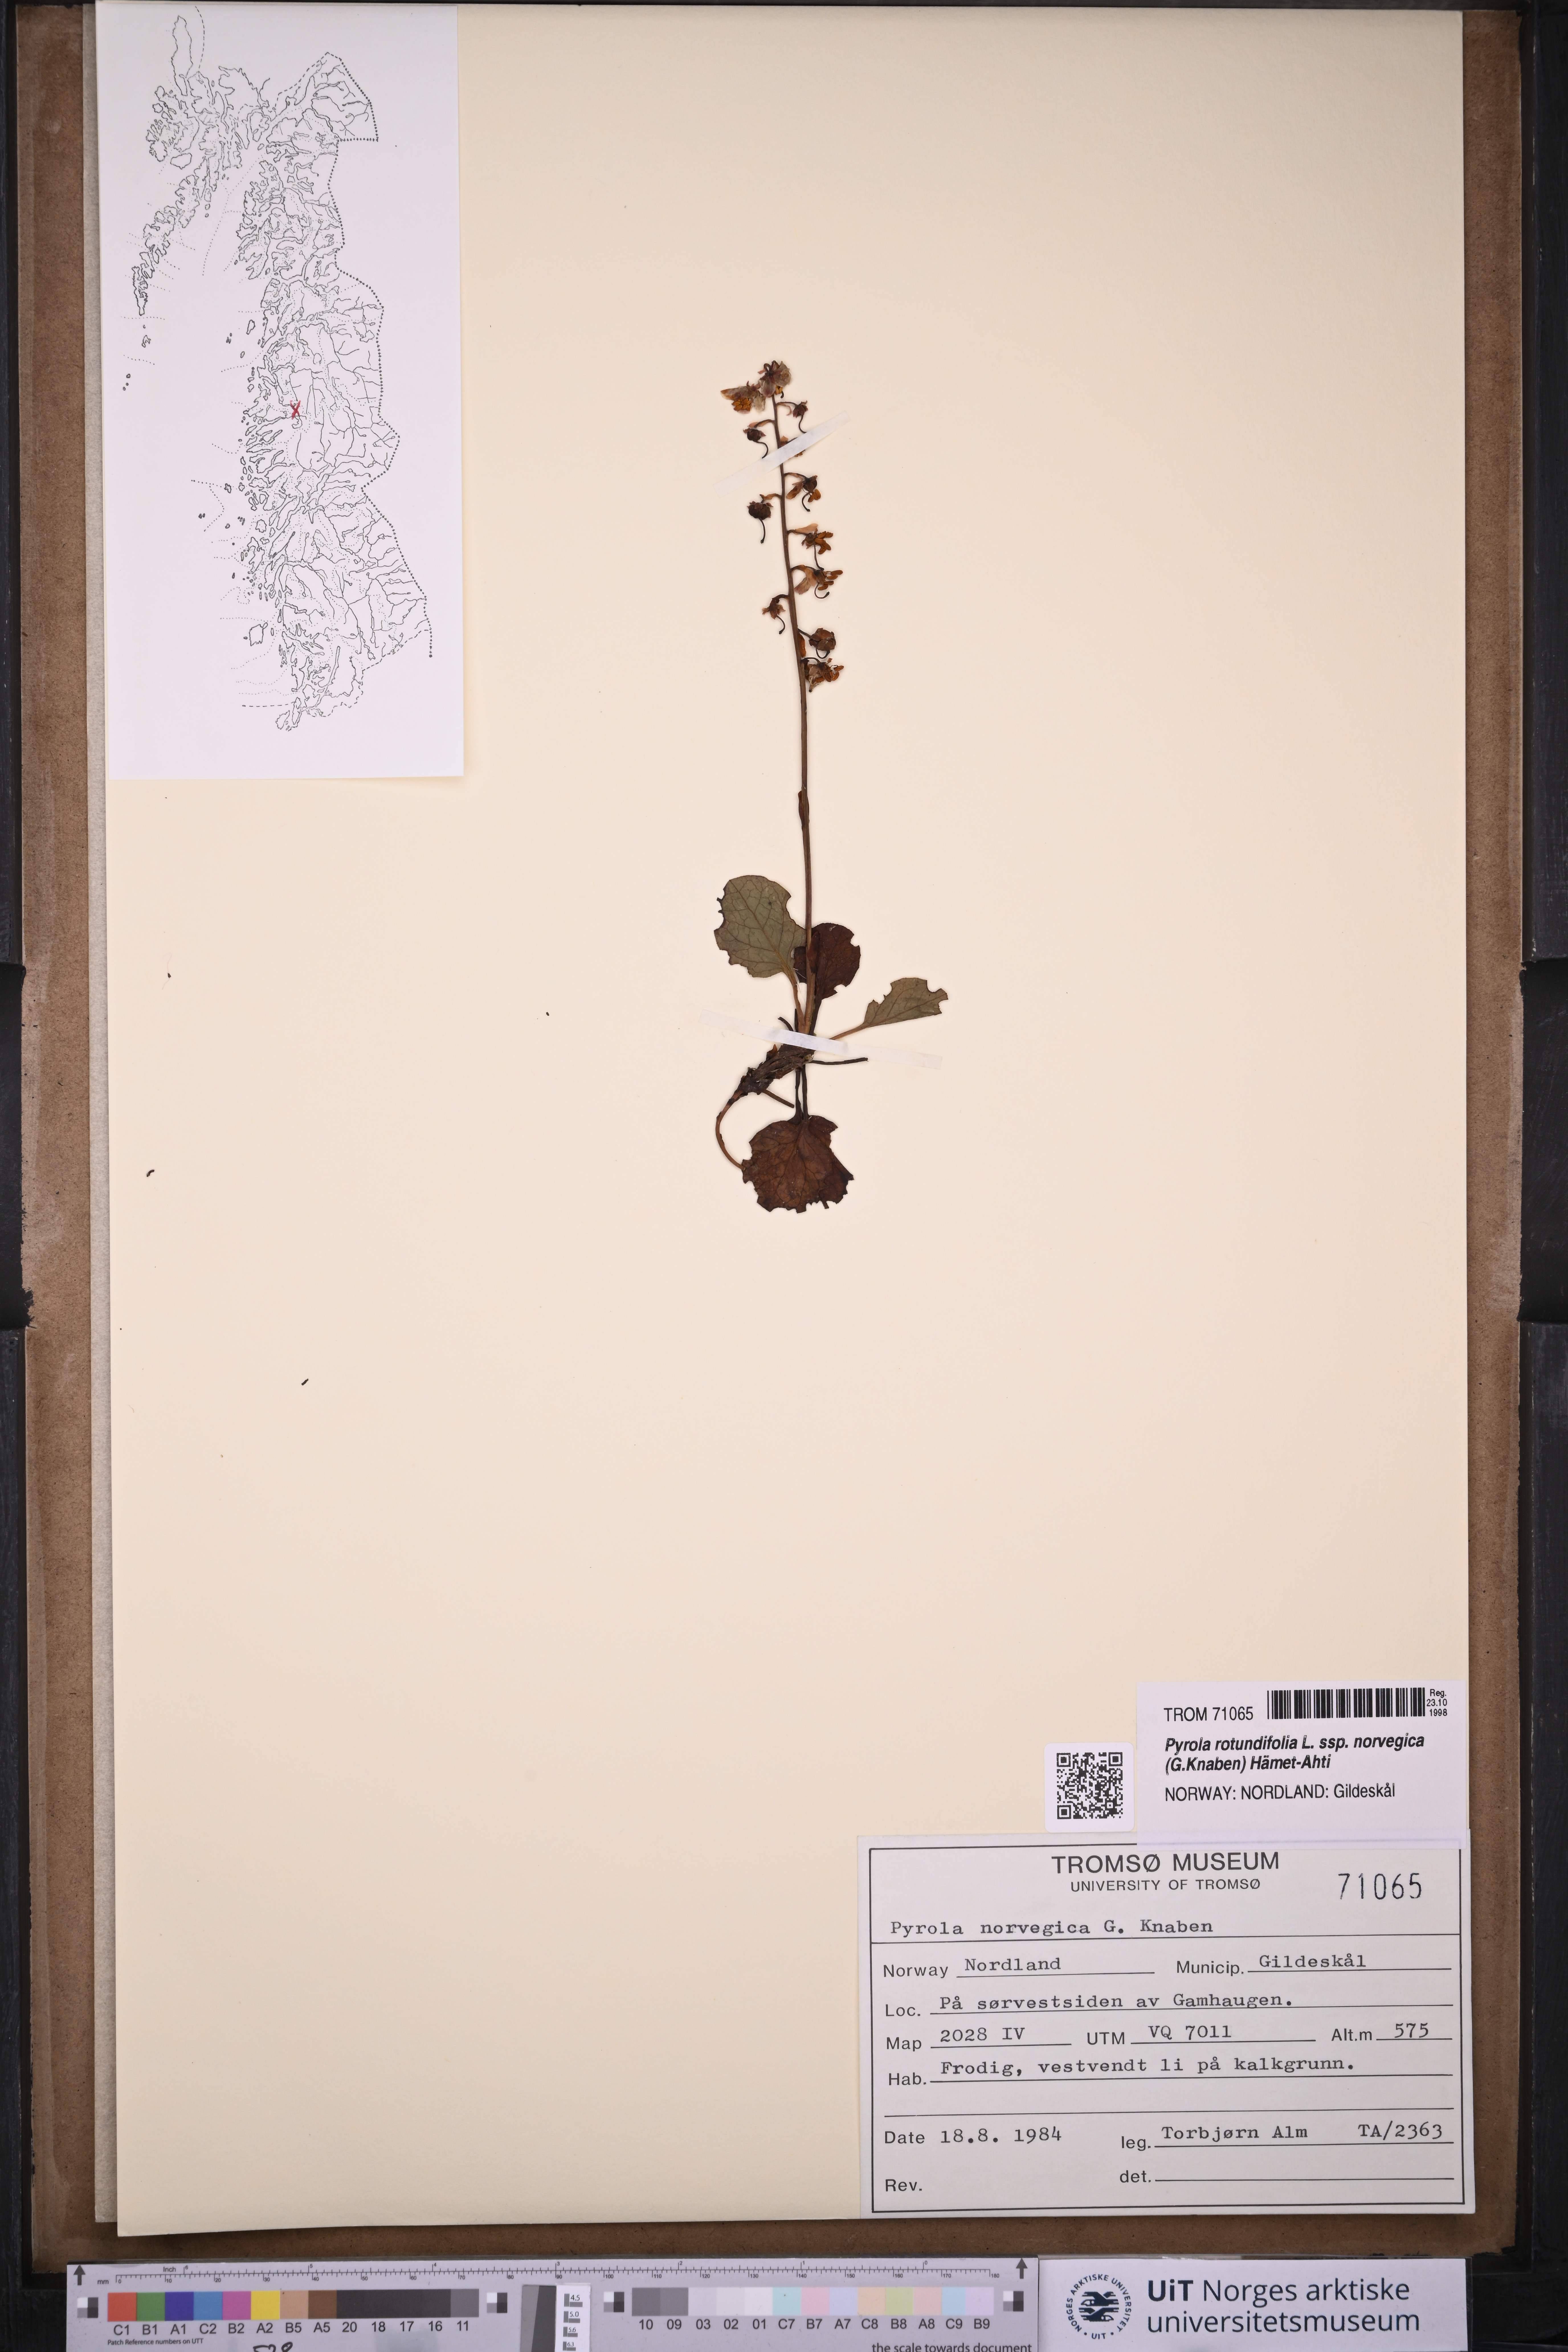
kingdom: Plantae
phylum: Tracheophyta
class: Magnoliopsida
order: Ericales
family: Ericaceae
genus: Pyrola
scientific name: Pyrola rotundifolia
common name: Round-leaved wintergreen
